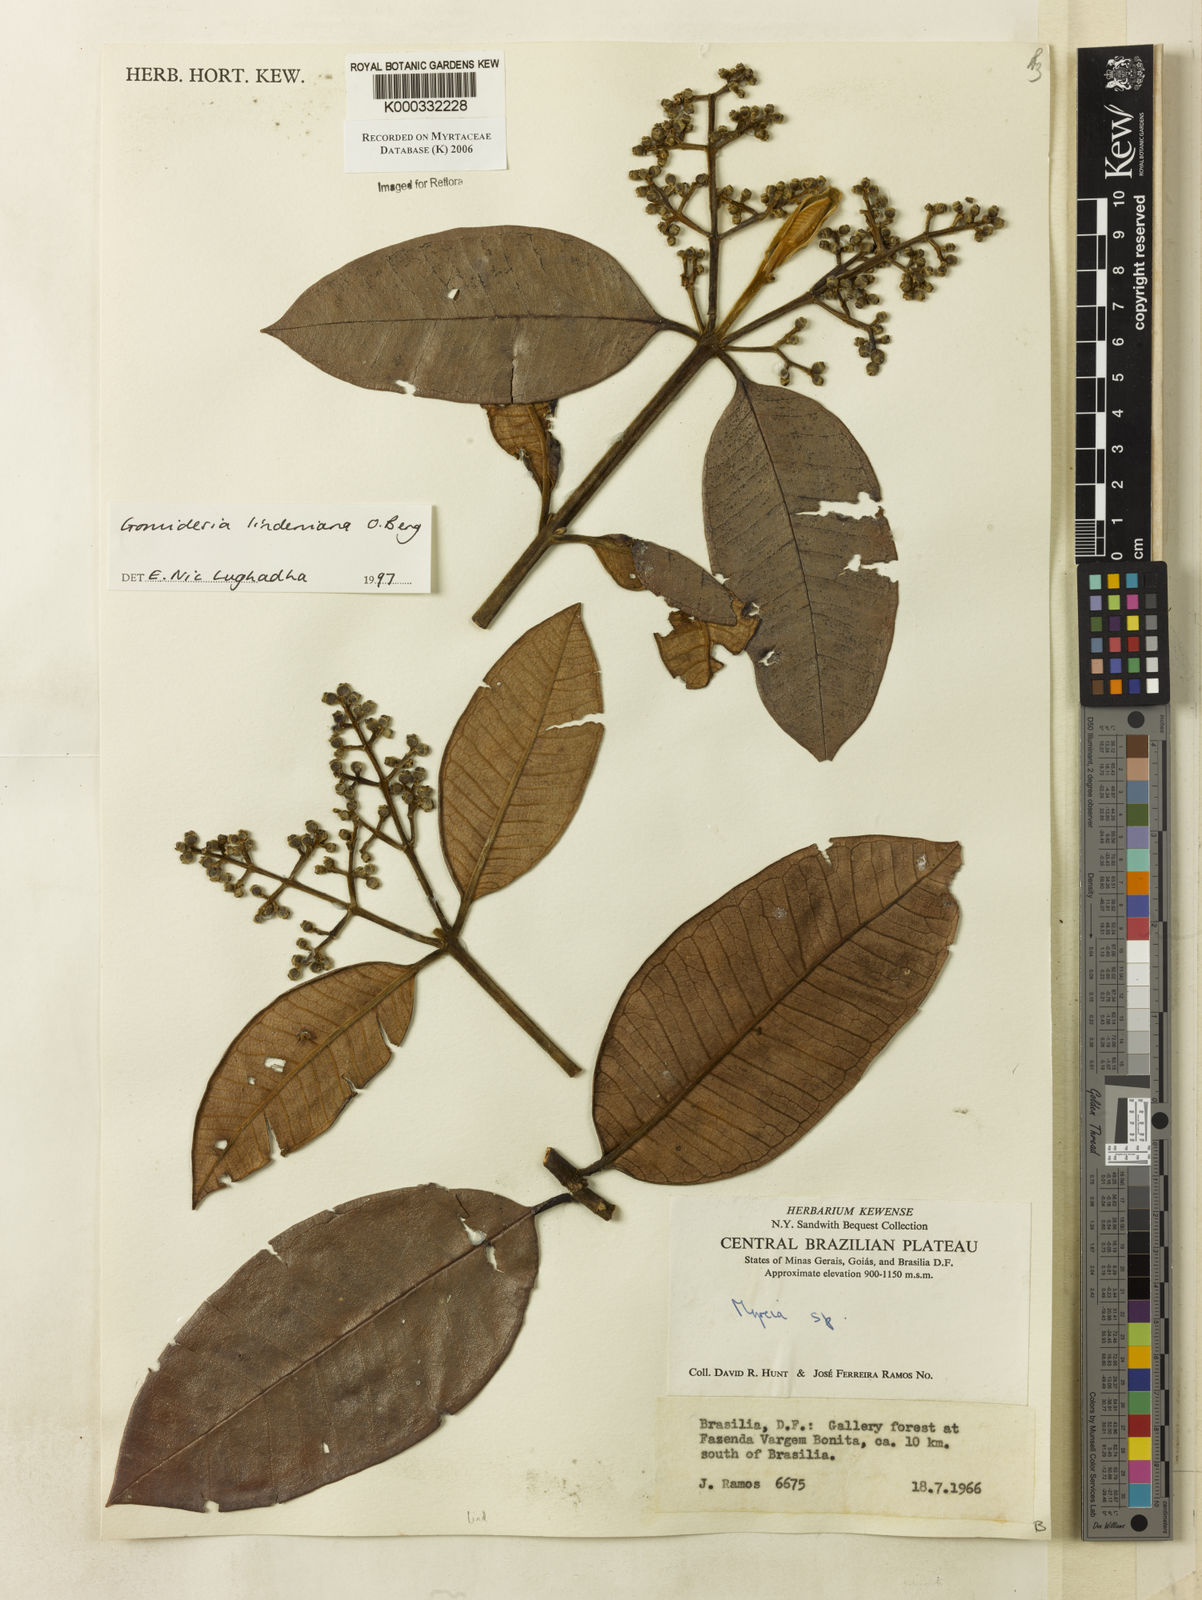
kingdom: Plantae
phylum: Tracheophyta
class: Magnoliopsida
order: Myrtales
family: Myrtaceae
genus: Myrcia
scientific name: Myrcia fenzliana
